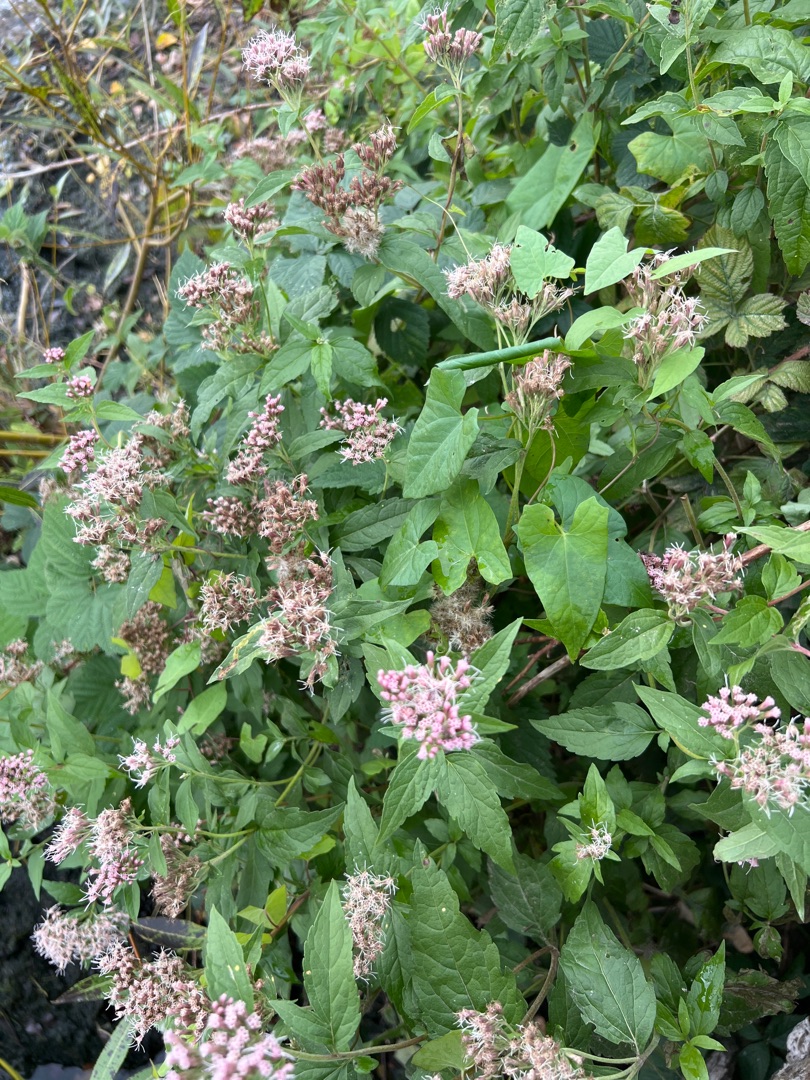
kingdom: Plantae
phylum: Tracheophyta
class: Magnoliopsida
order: Asterales
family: Asteraceae
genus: Eupatorium
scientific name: Eupatorium cannabinum
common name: Hjortetrøst
